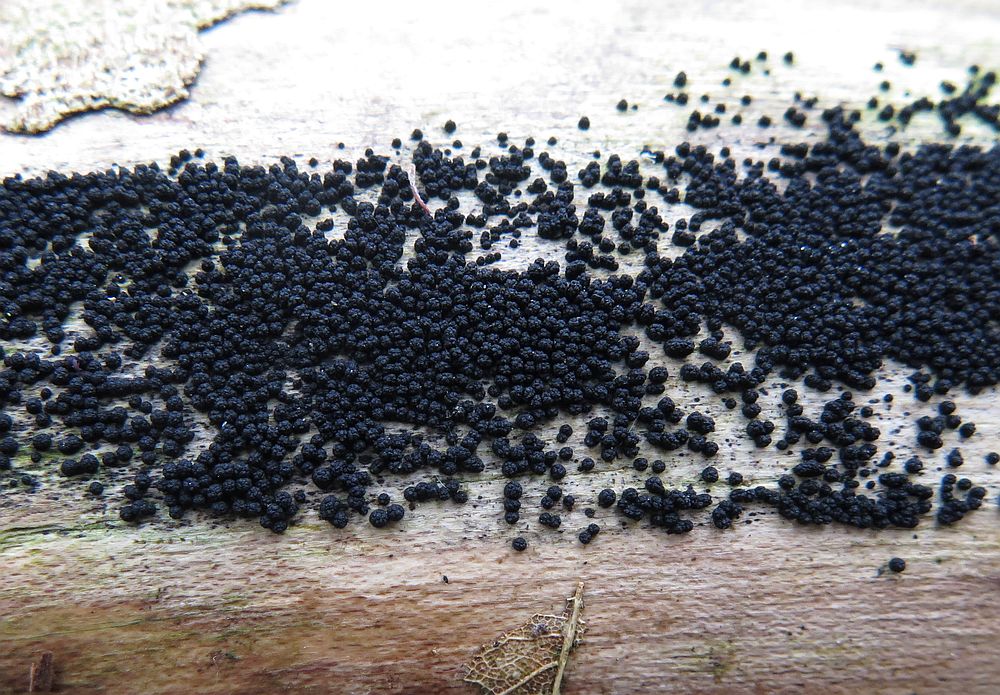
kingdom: Fungi
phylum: Ascomycota
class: Sordariomycetes
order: Coronophorales
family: Bertiaceae
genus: Bertia
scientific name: Bertia moriformis
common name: almindelig morbærkerne
